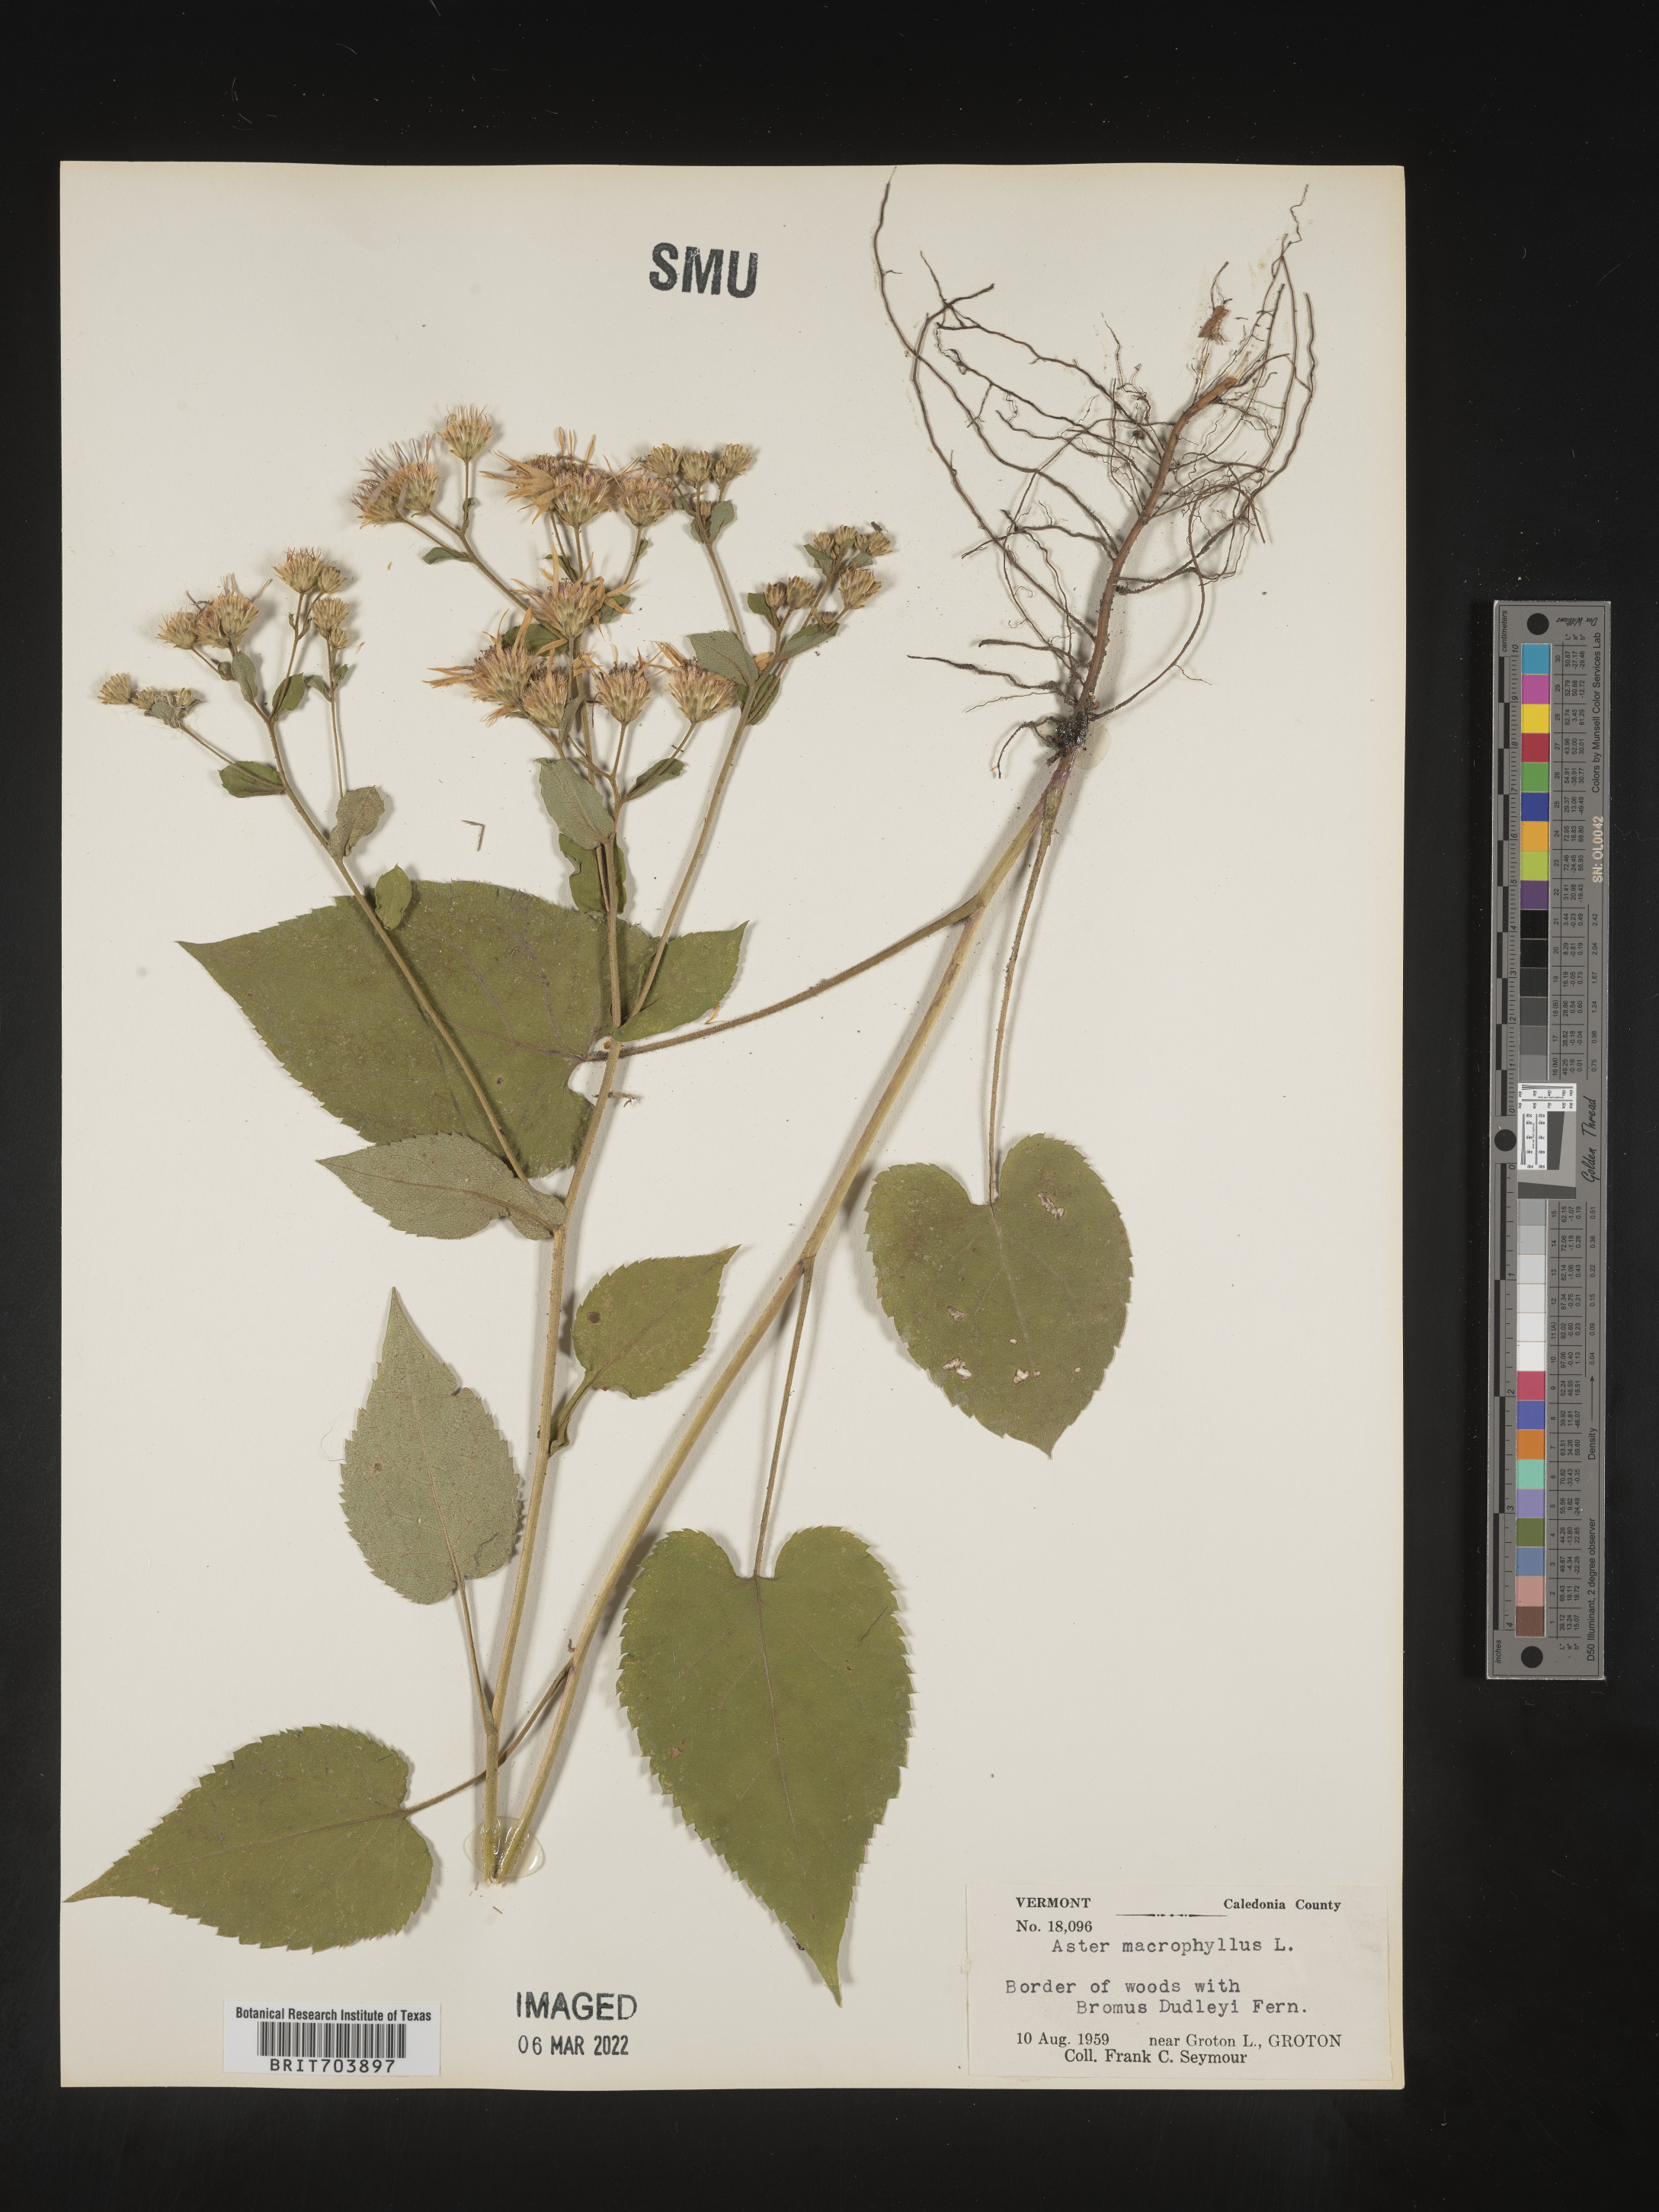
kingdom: Plantae
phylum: Tracheophyta
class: Magnoliopsida
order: Asterales
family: Asteraceae
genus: Eurybia
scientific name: Eurybia macrophylla
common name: Big-leaved aster
